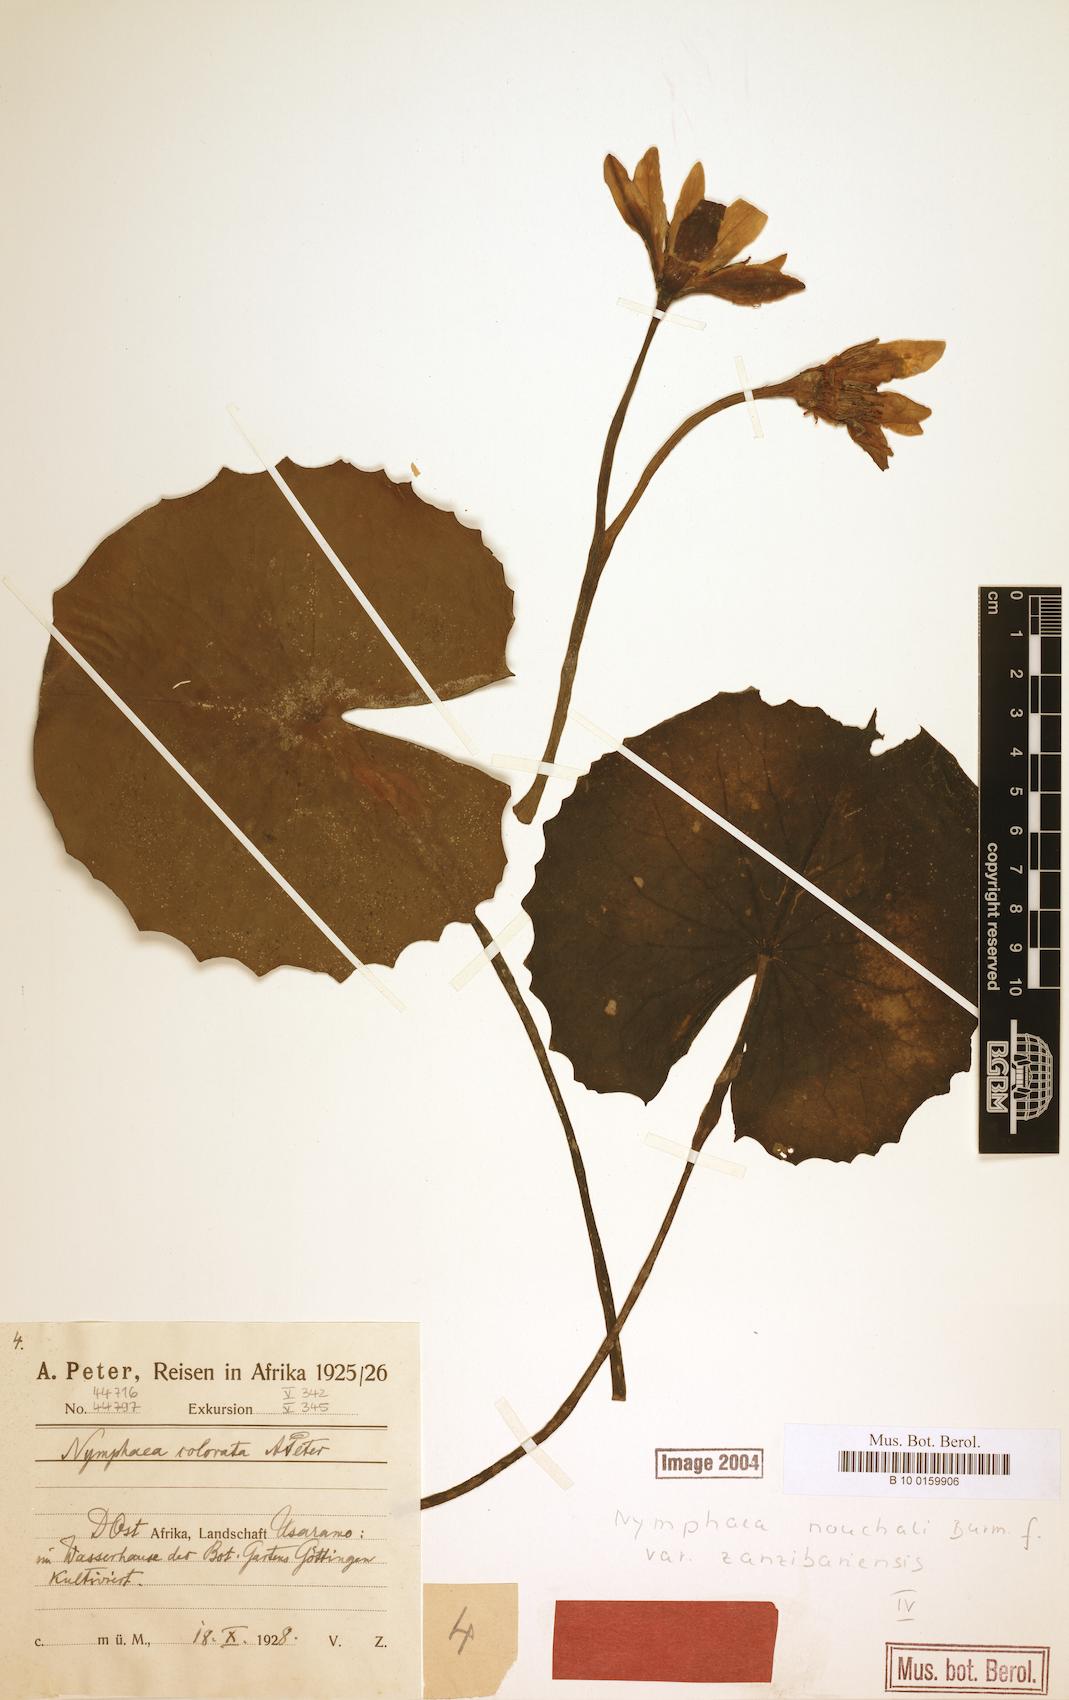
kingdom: Plantae
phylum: Tracheophyta
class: Magnoliopsida
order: Nymphaeales
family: Nymphaeaceae
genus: Nymphaea
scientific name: Nymphaea nouchali
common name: Blue lotus
